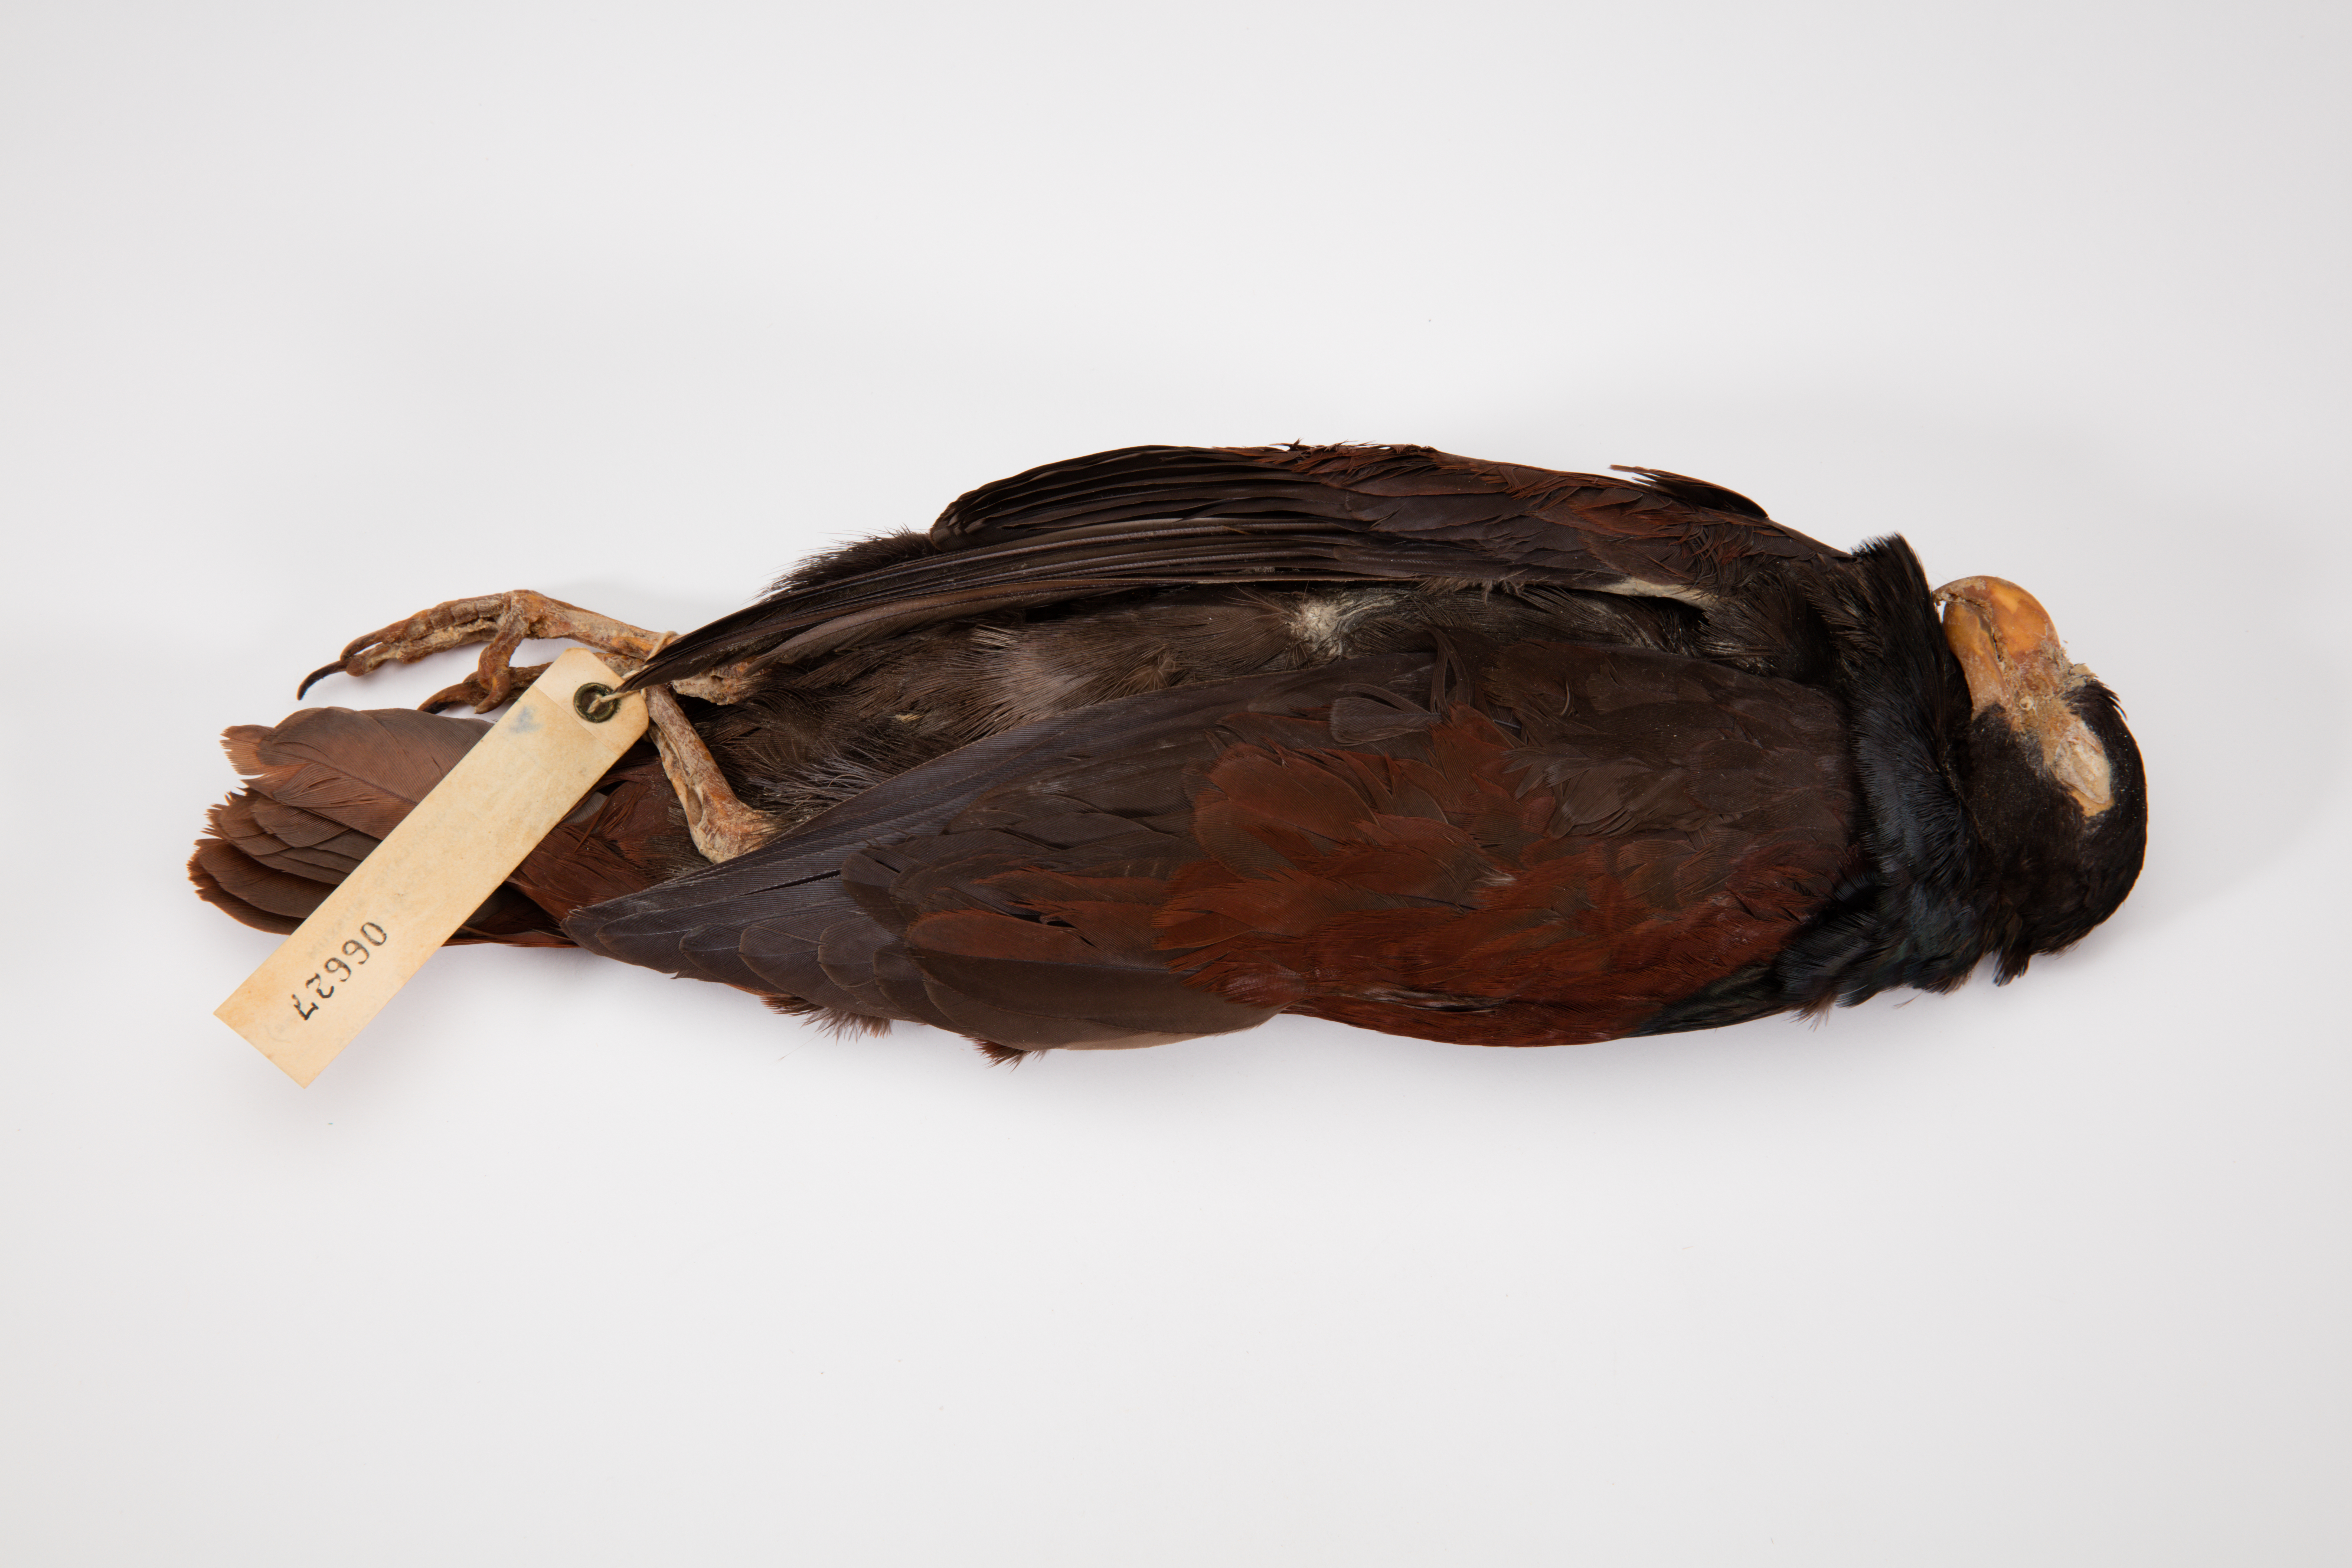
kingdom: Animalia
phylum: Chordata
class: Aves
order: Columbiformes
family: Columbidae
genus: Didunculus
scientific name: Didunculus strigirostris
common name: Tooth-billed pigeon
